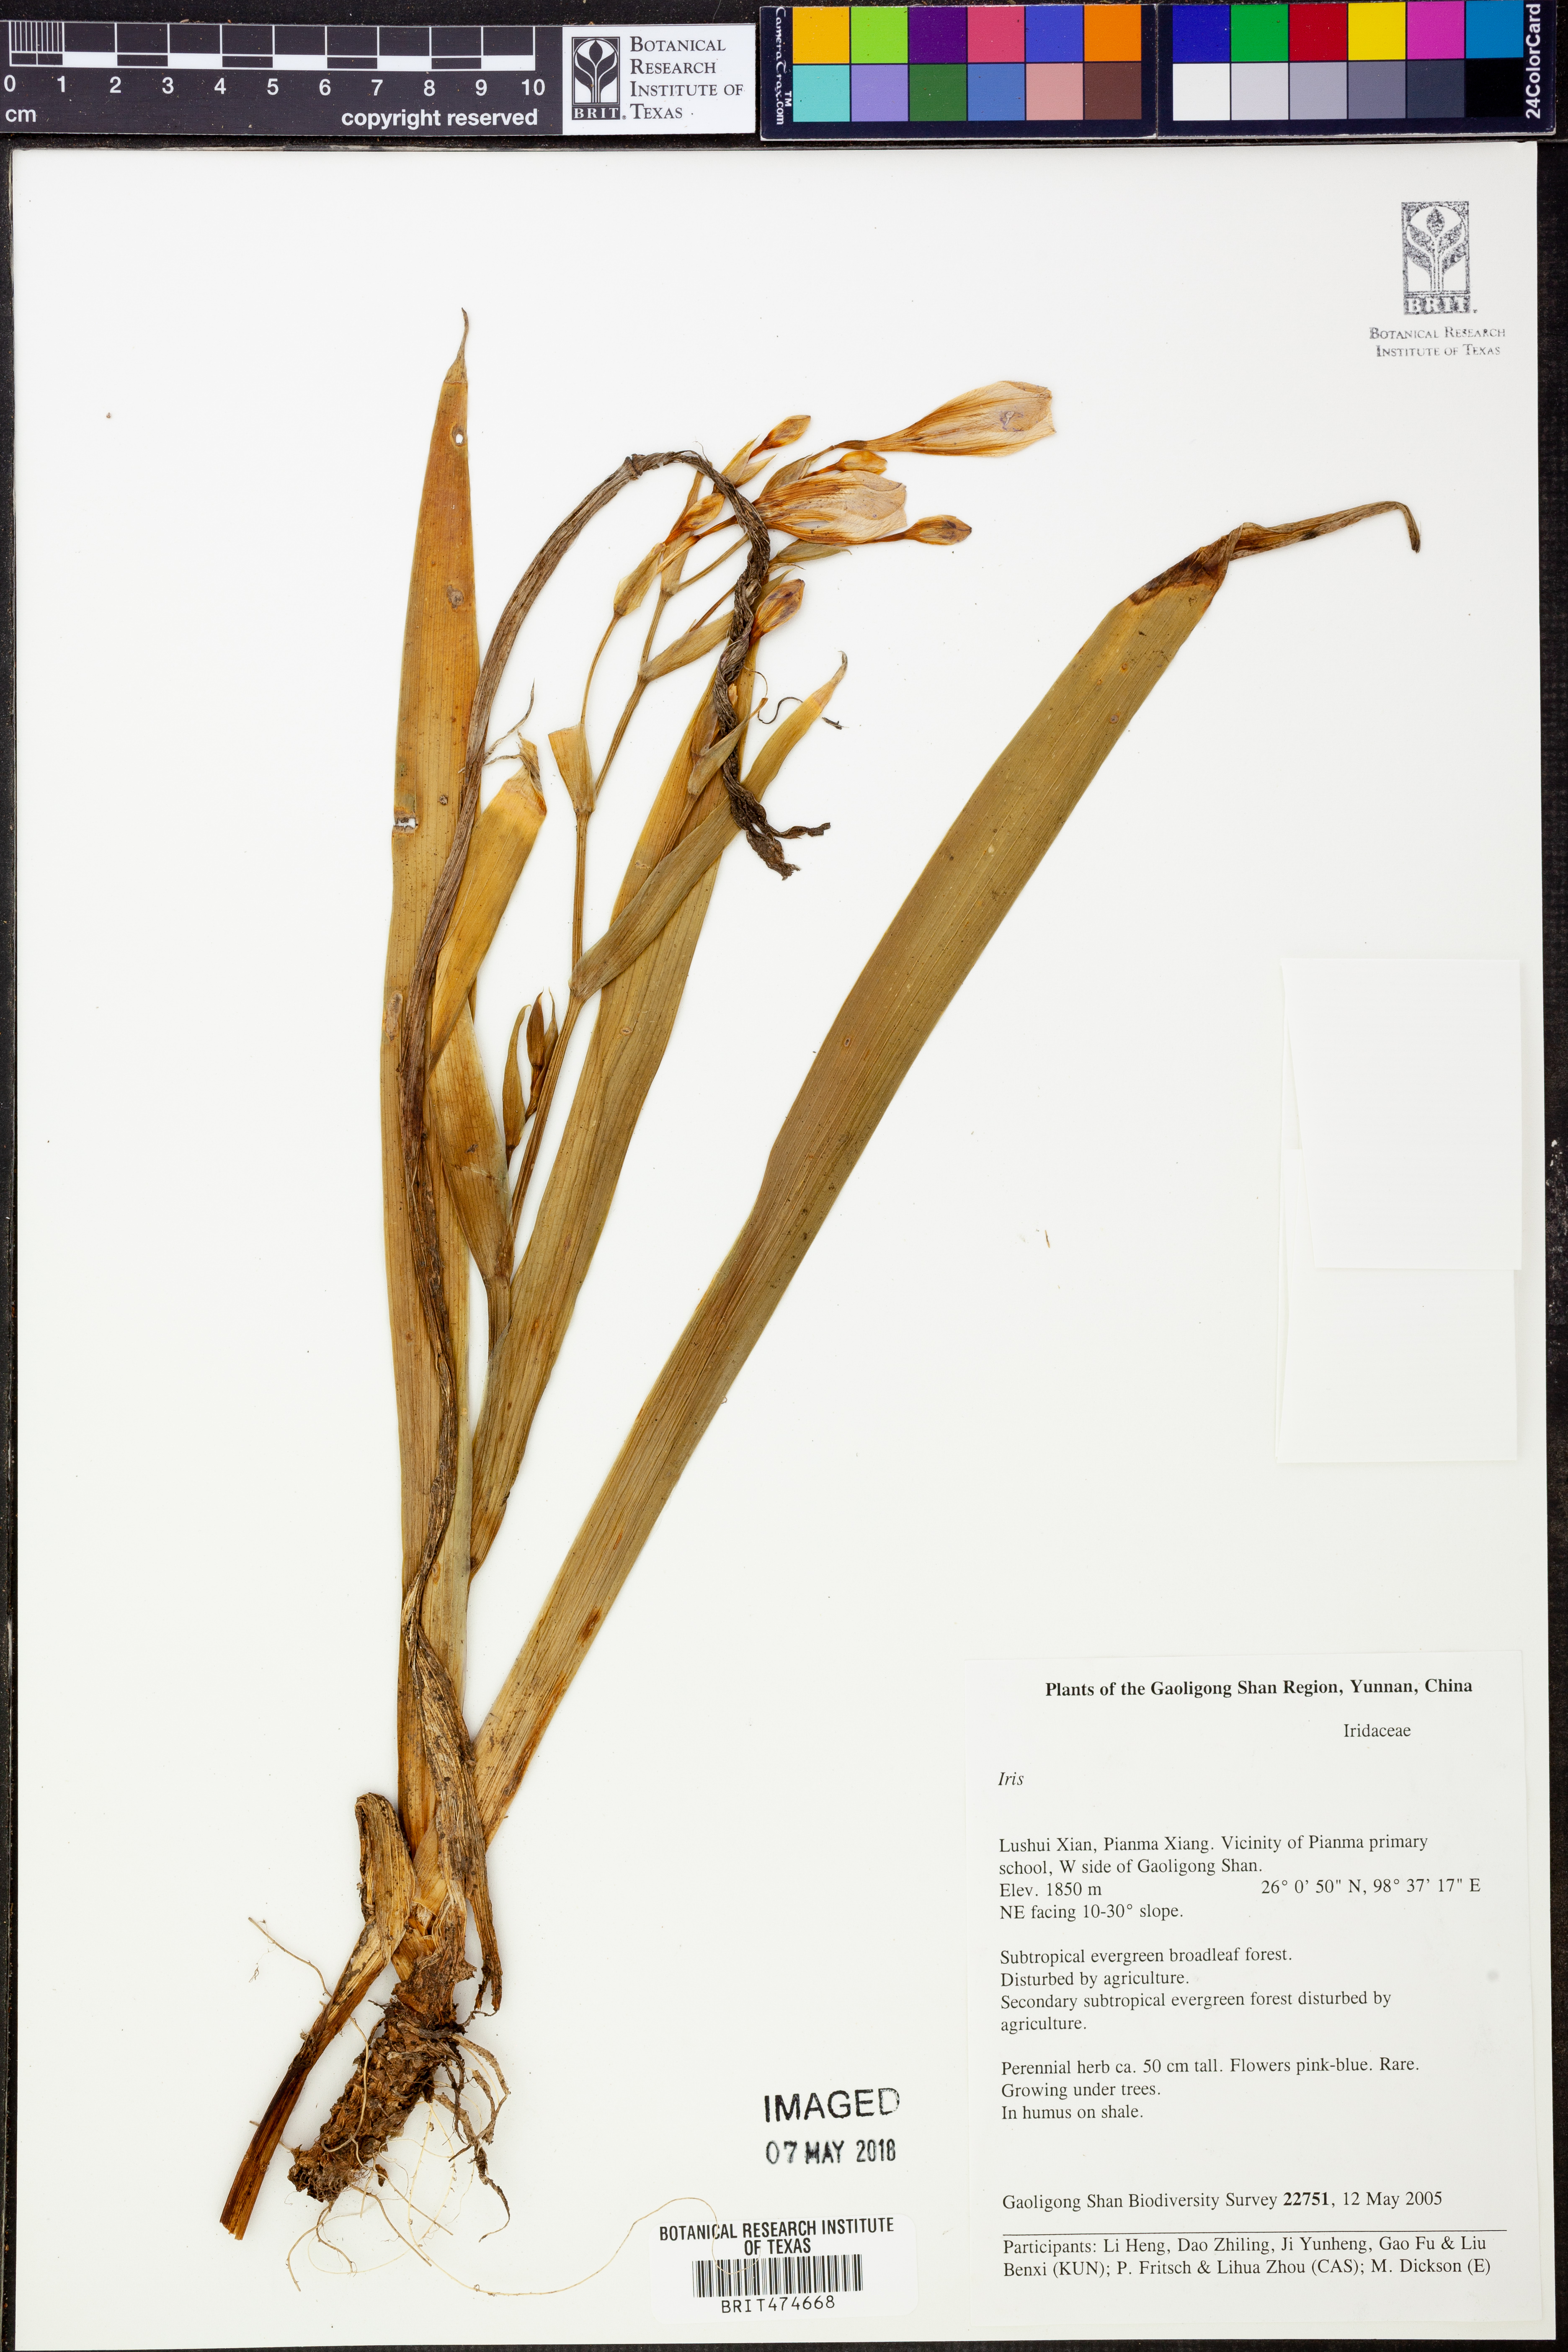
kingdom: Plantae
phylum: Tracheophyta
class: Liliopsida
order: Asparagales
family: Iridaceae
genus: Iris
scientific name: Iris
